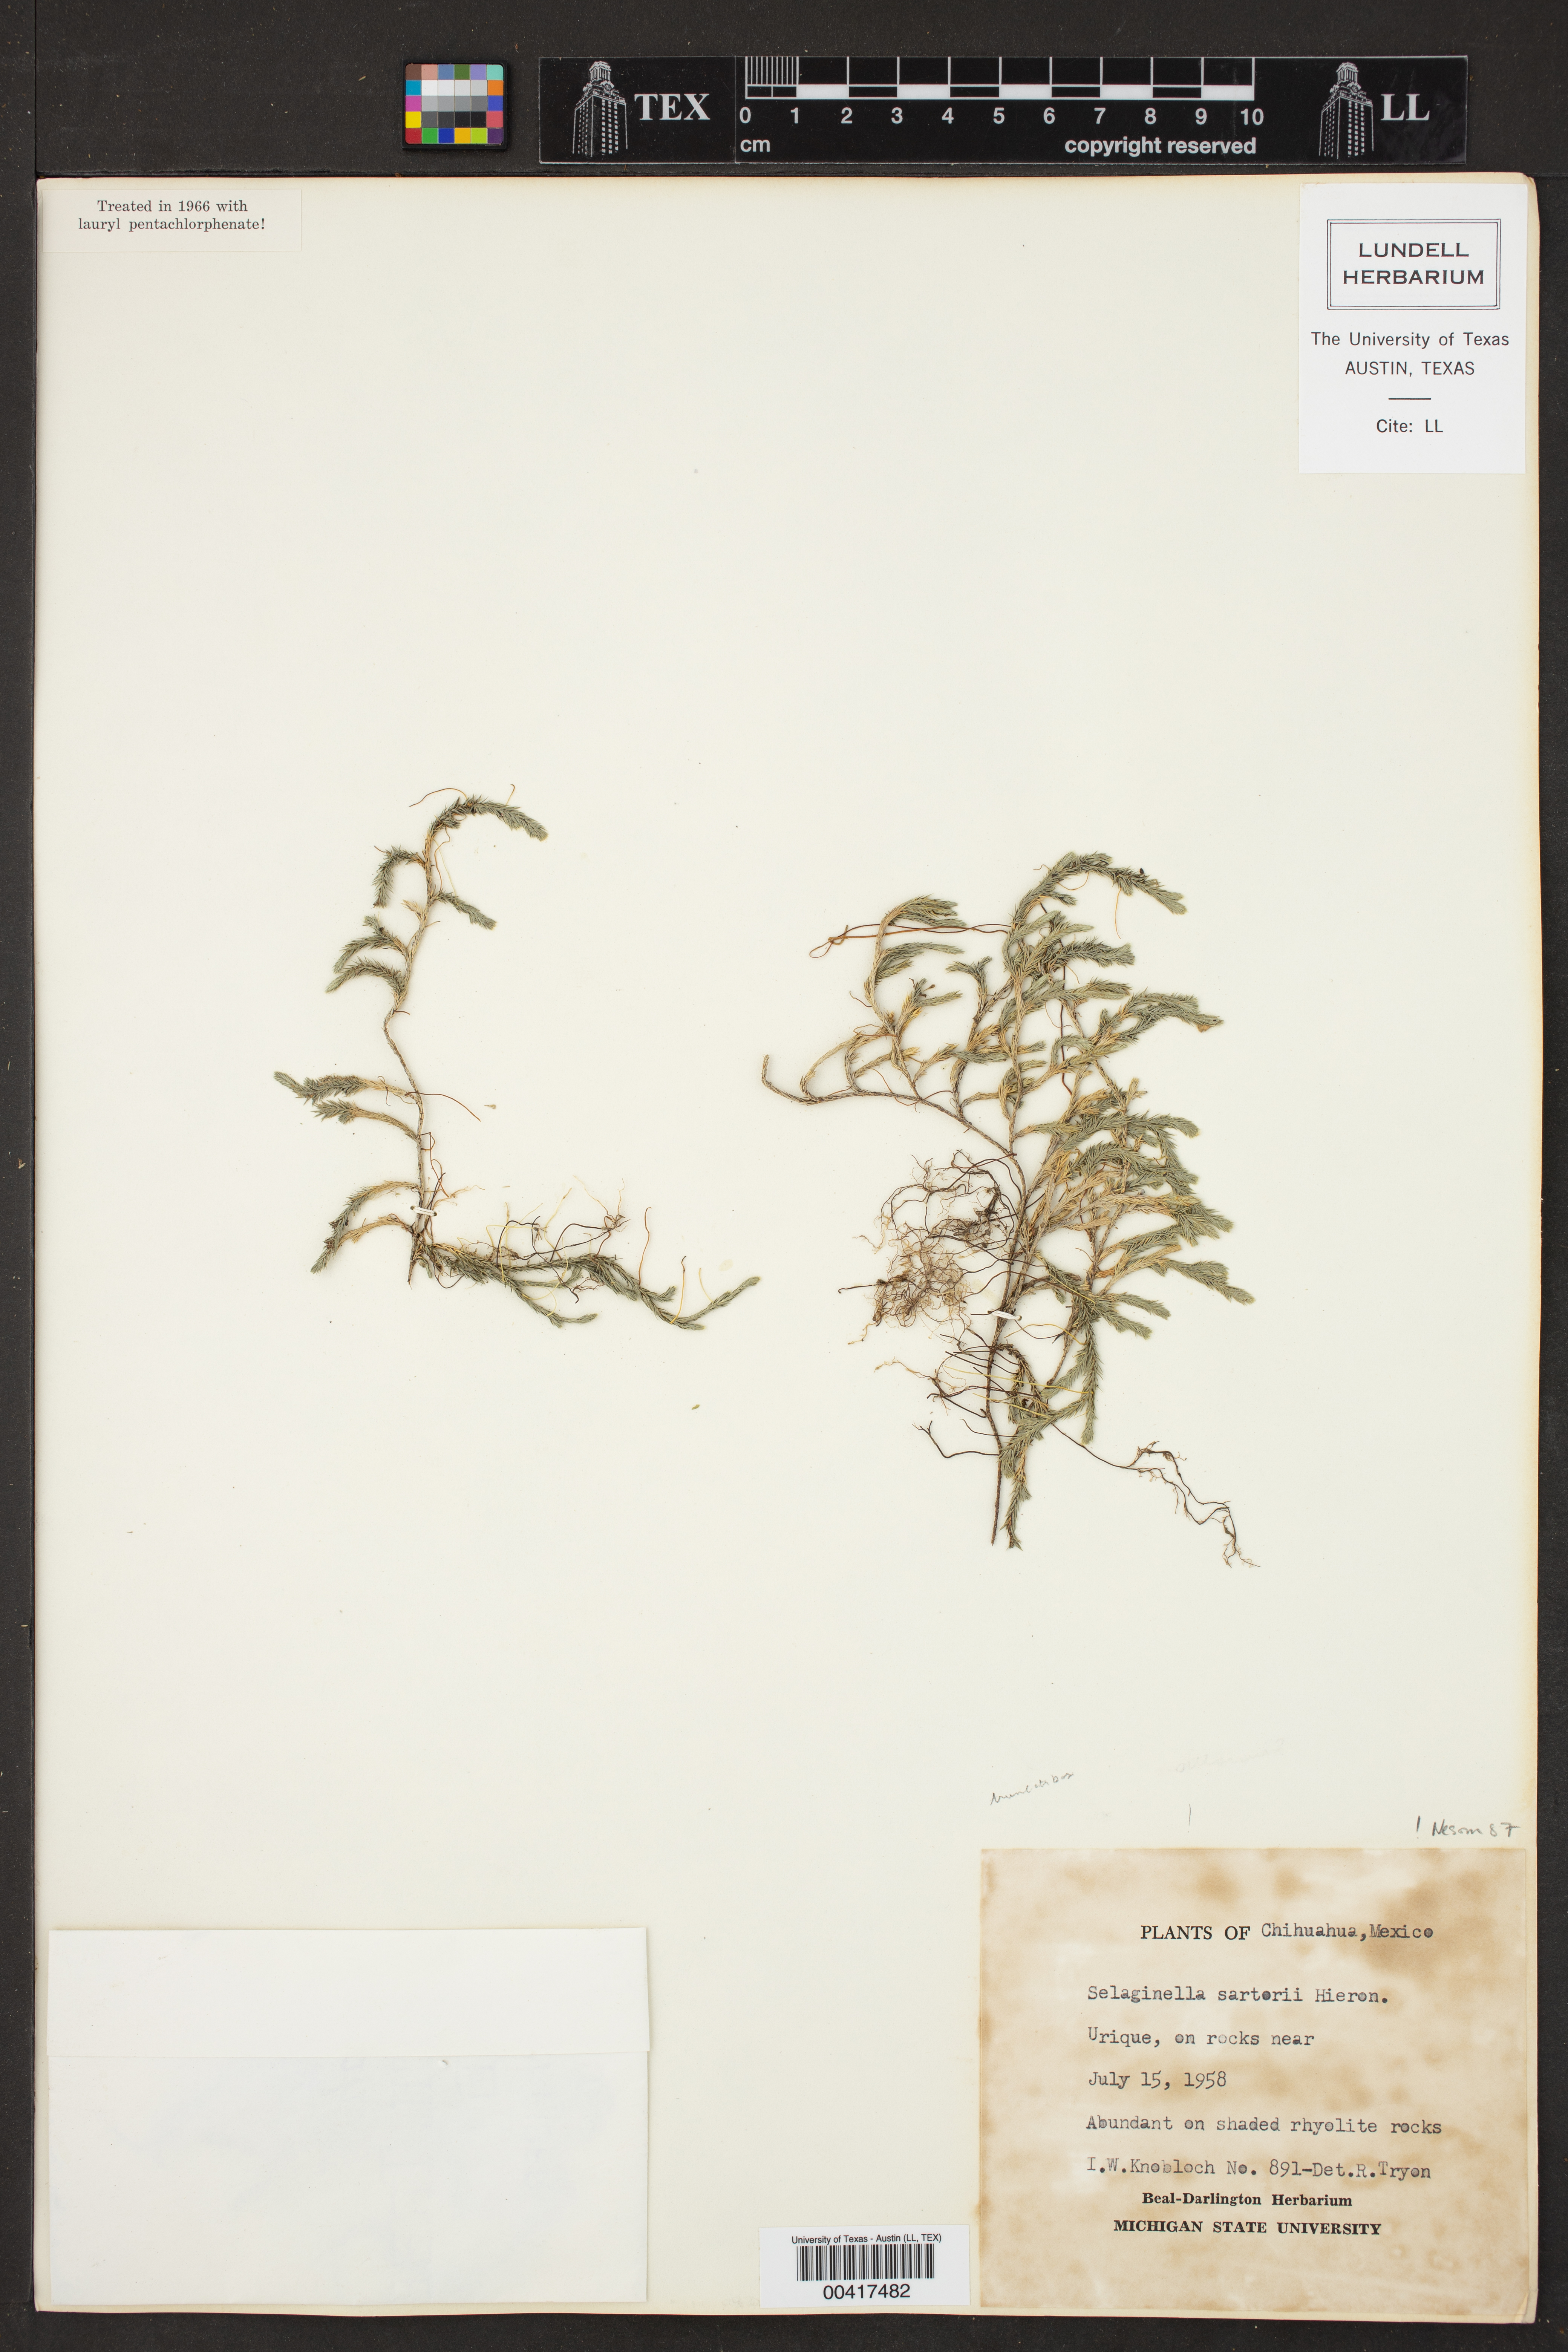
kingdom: Plantae
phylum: Tracheophyta
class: Lycopodiopsida
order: Selaginellales
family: Selaginellaceae
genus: Selaginella
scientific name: Selaginella sartorii
